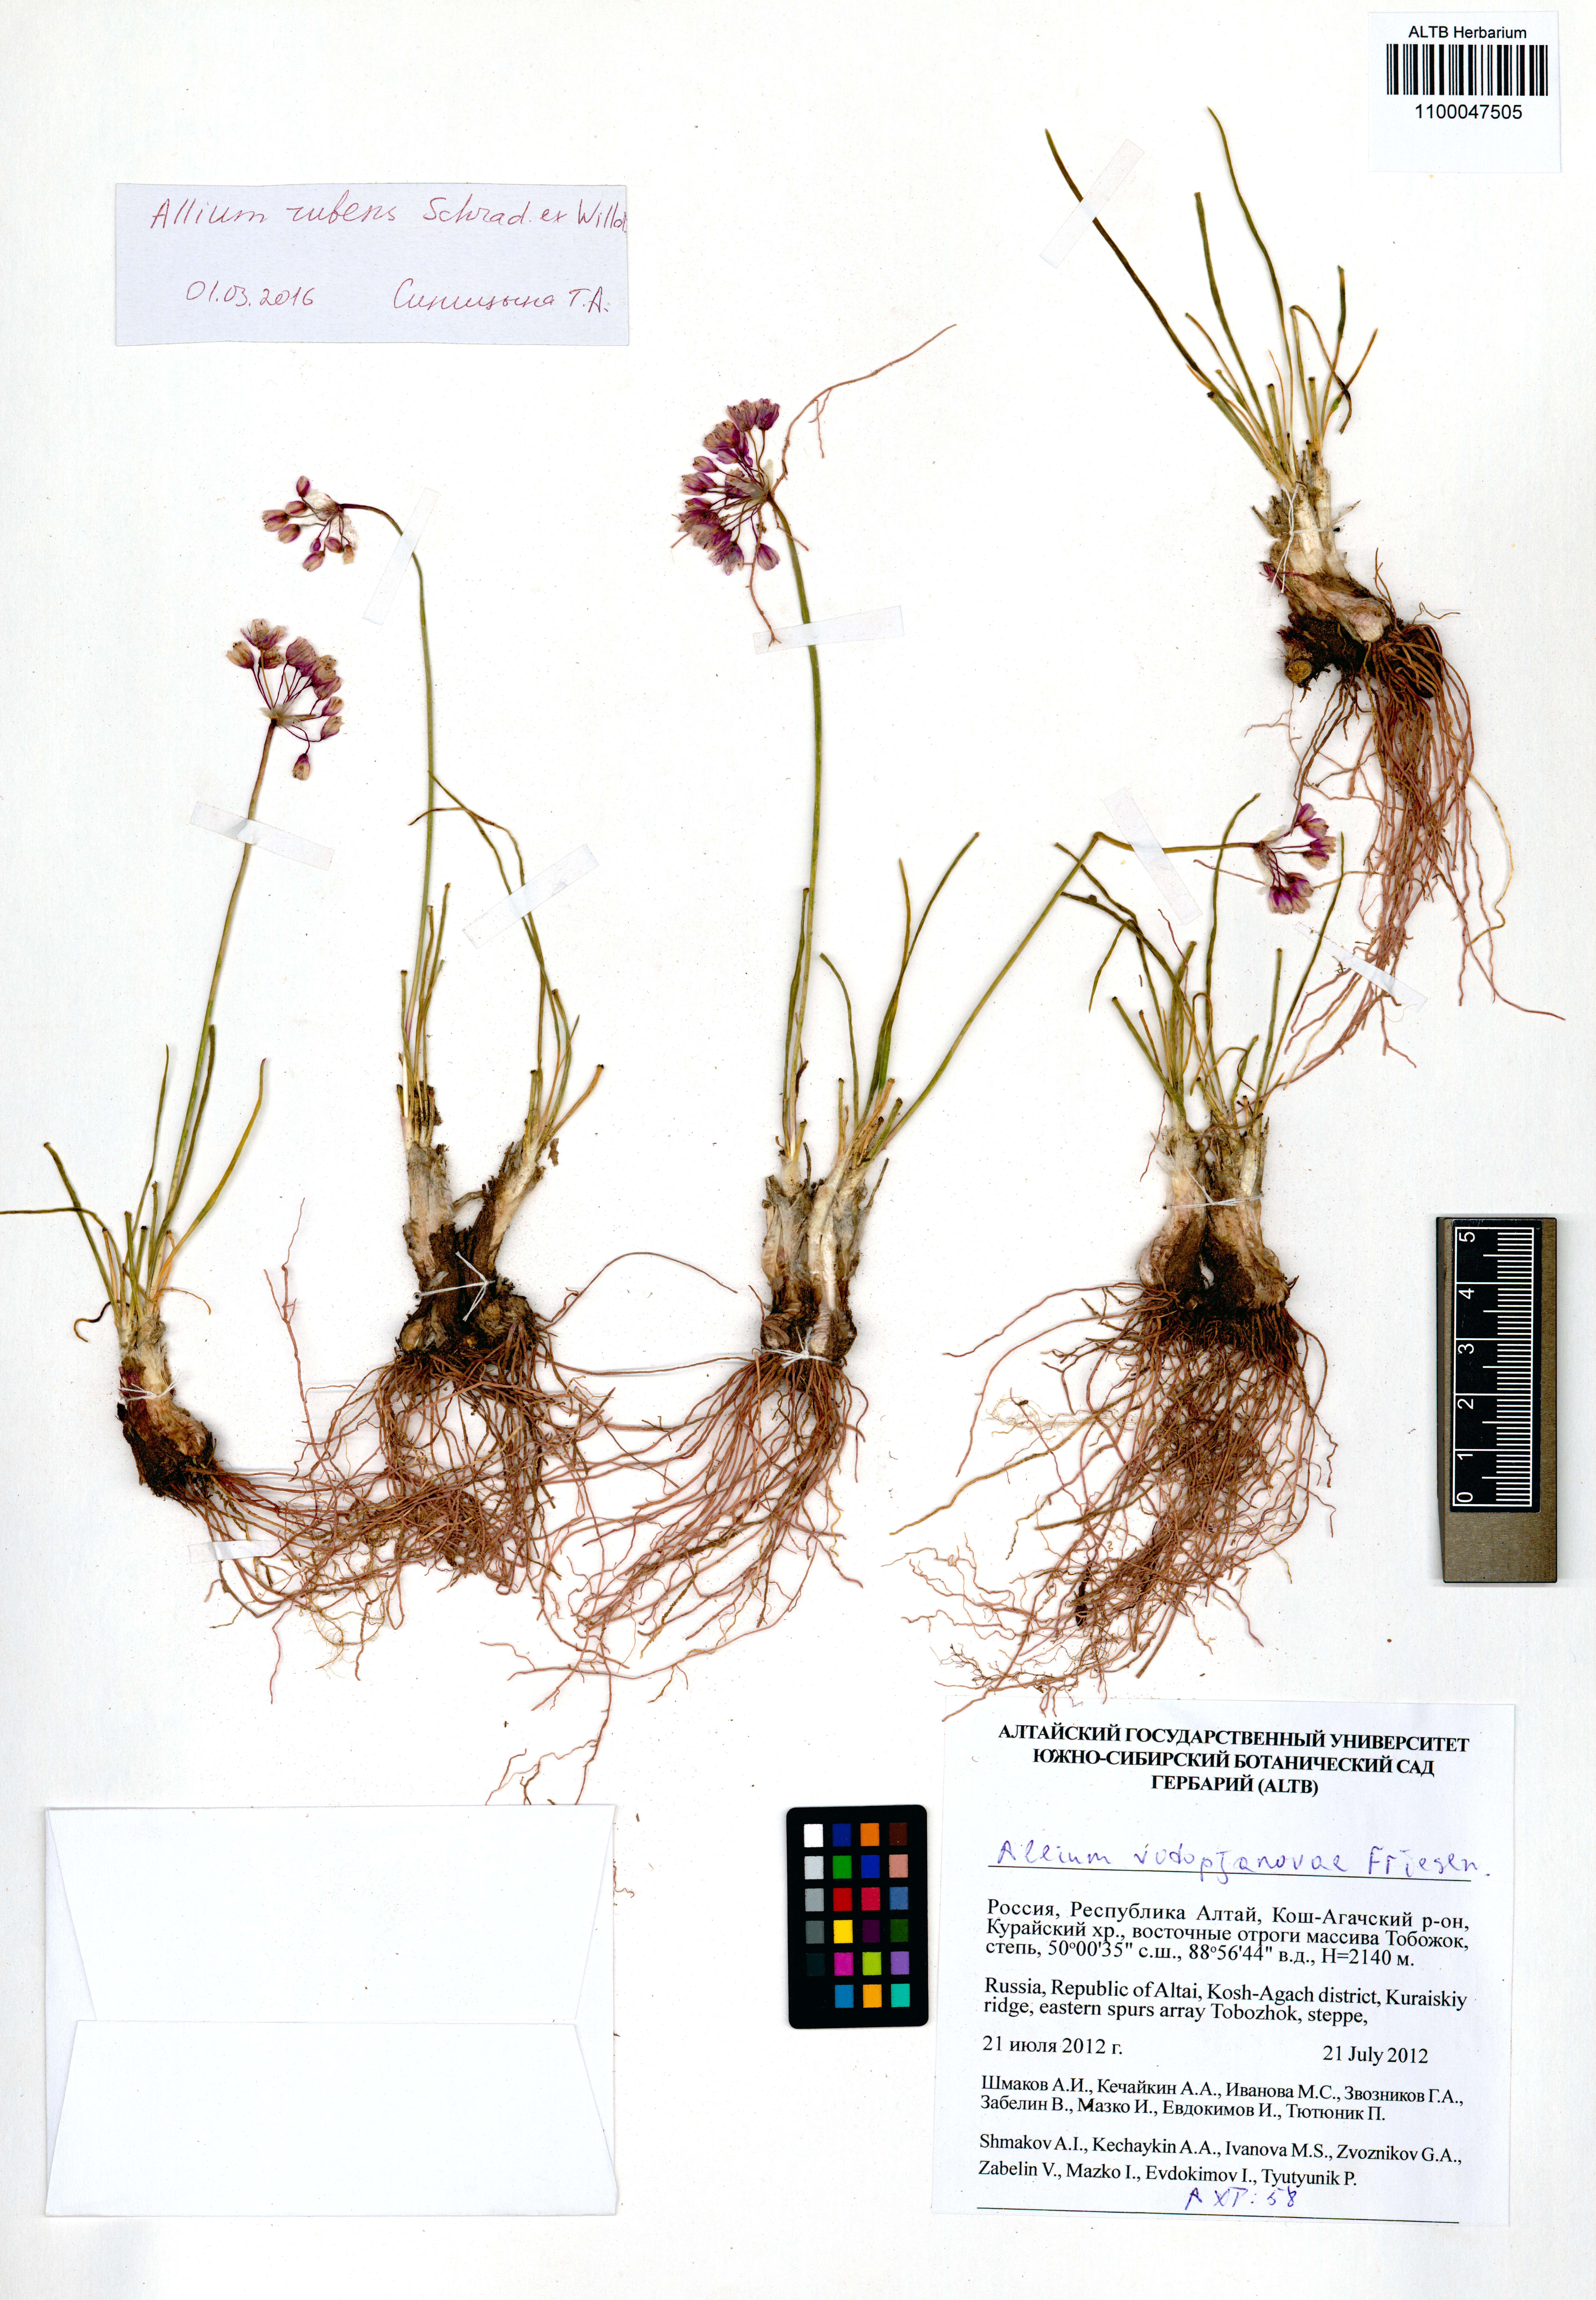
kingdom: Plantae
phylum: Tracheophyta
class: Liliopsida
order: Asparagales
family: Amaryllidaceae
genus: Allium
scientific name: Allium rubens
